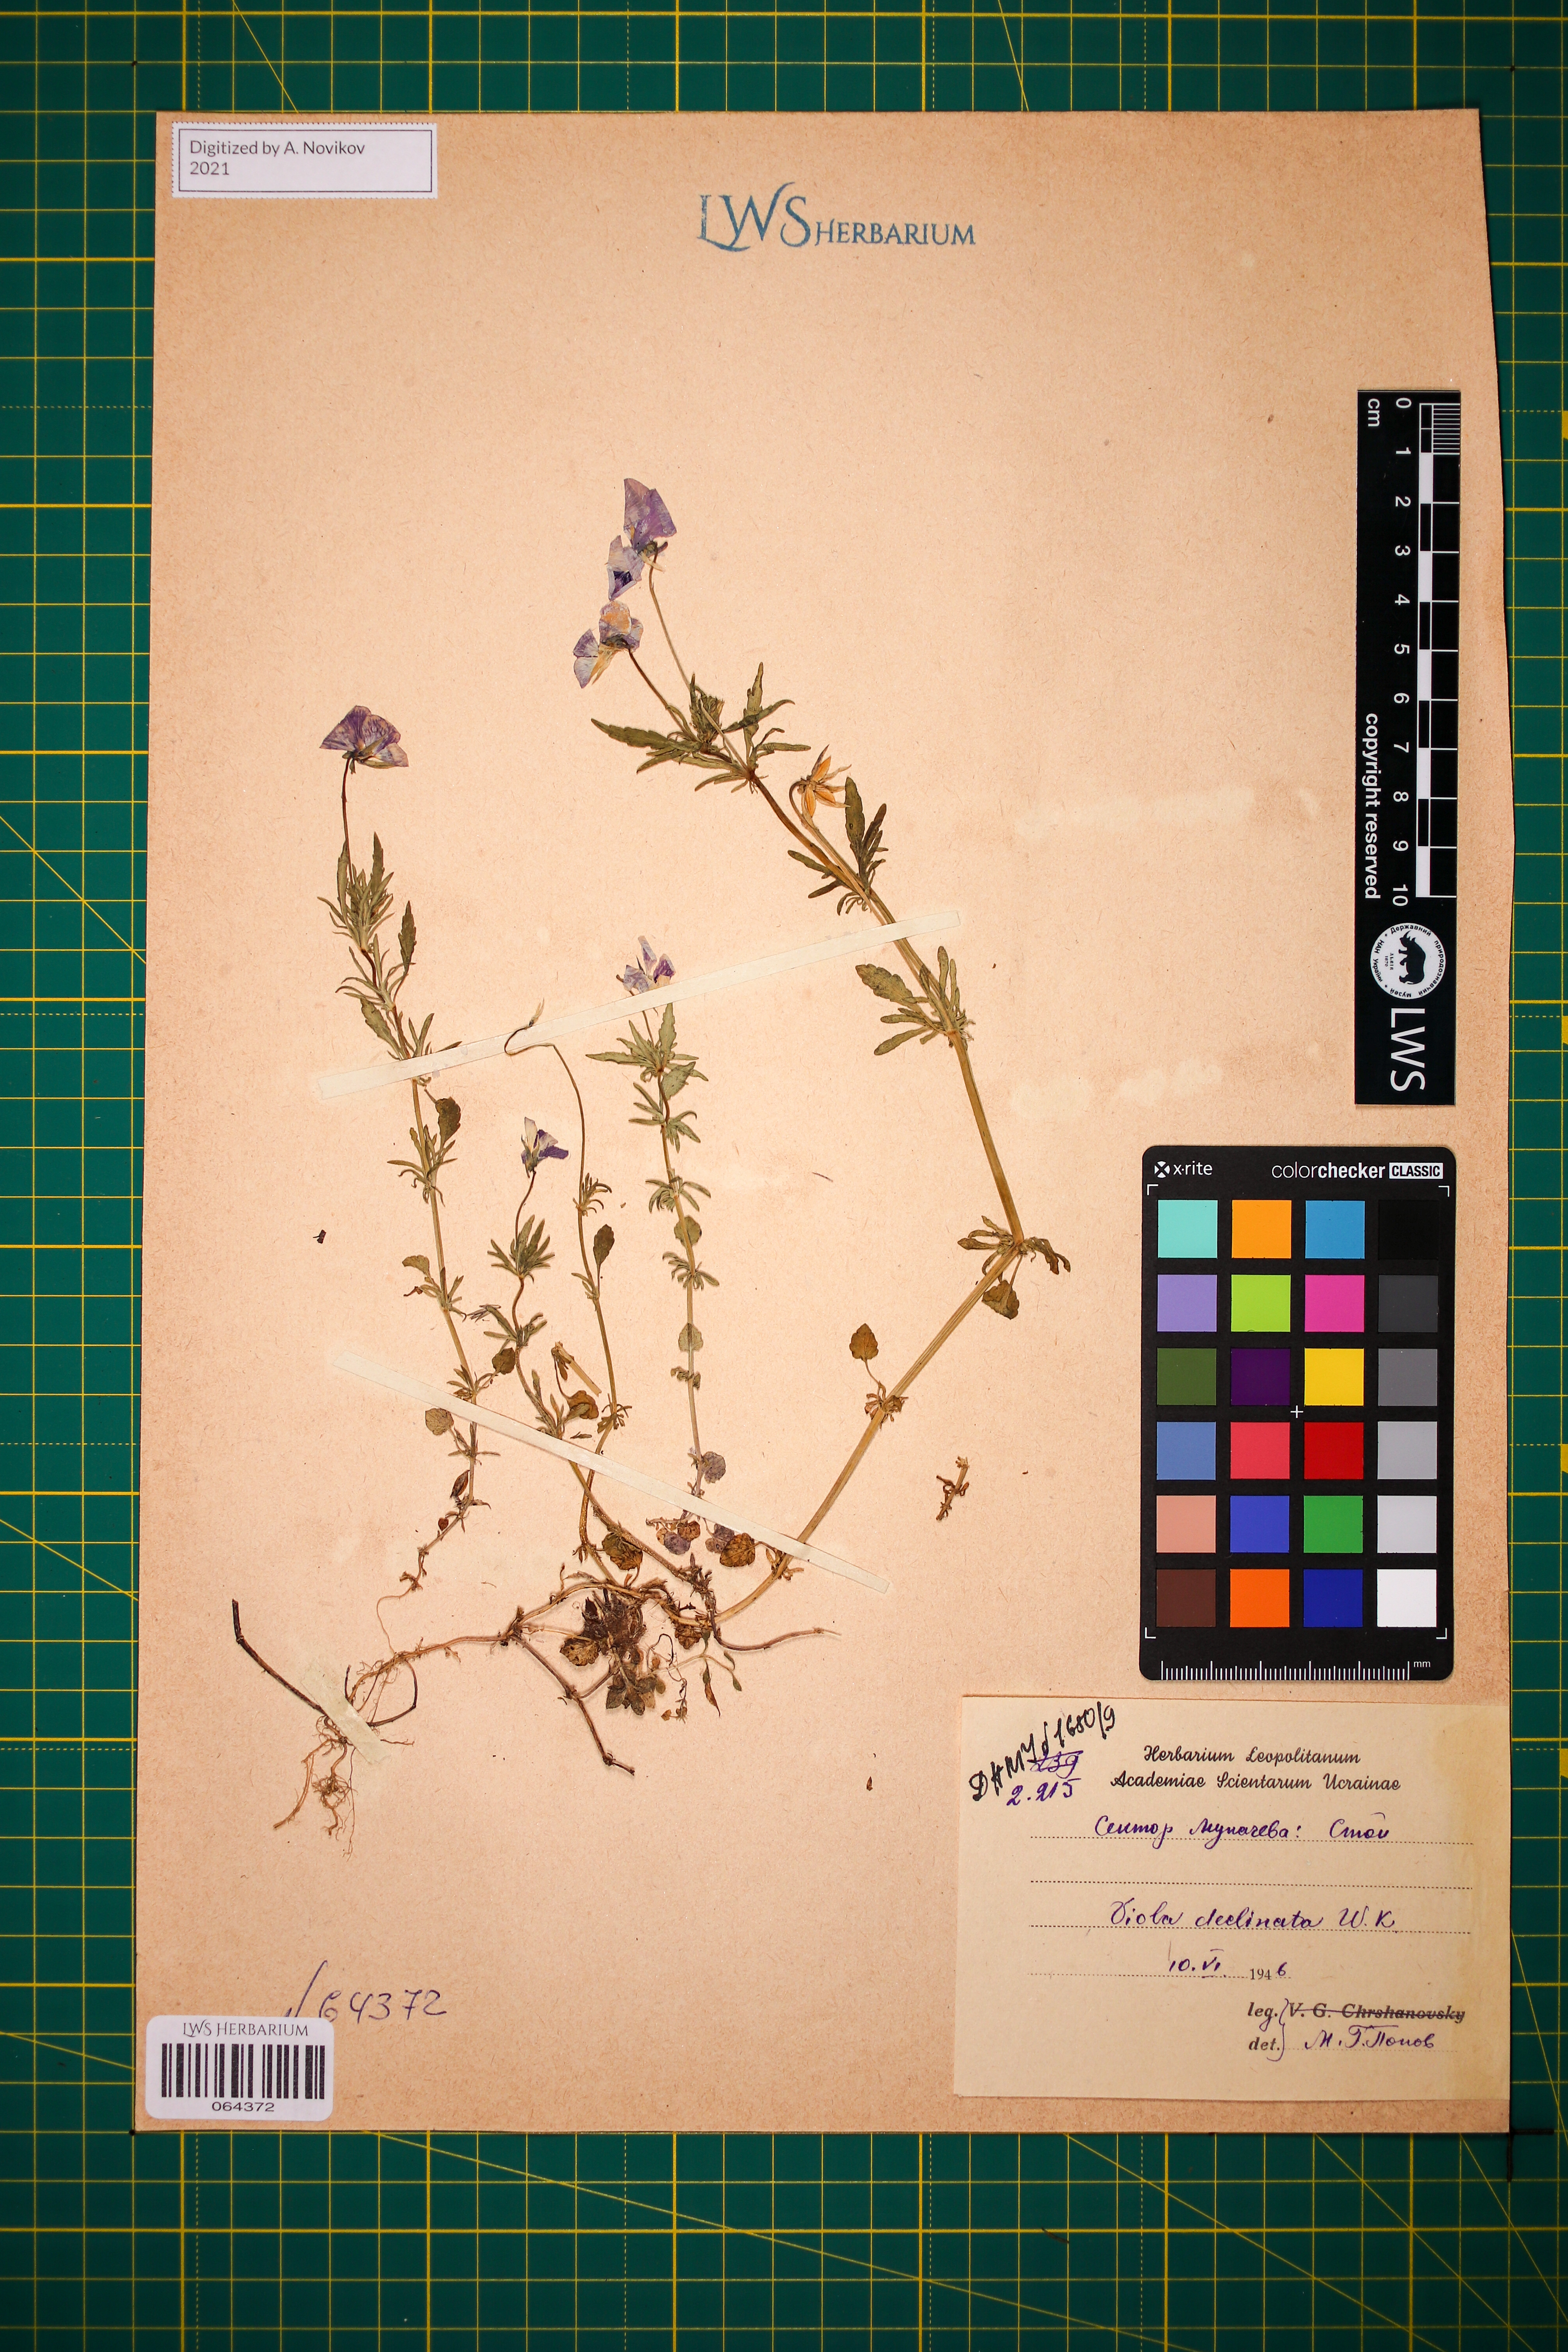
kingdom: Plantae
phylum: Tracheophyta
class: Magnoliopsida
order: Malpighiales
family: Violaceae
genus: Viola
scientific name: Viola declinata
